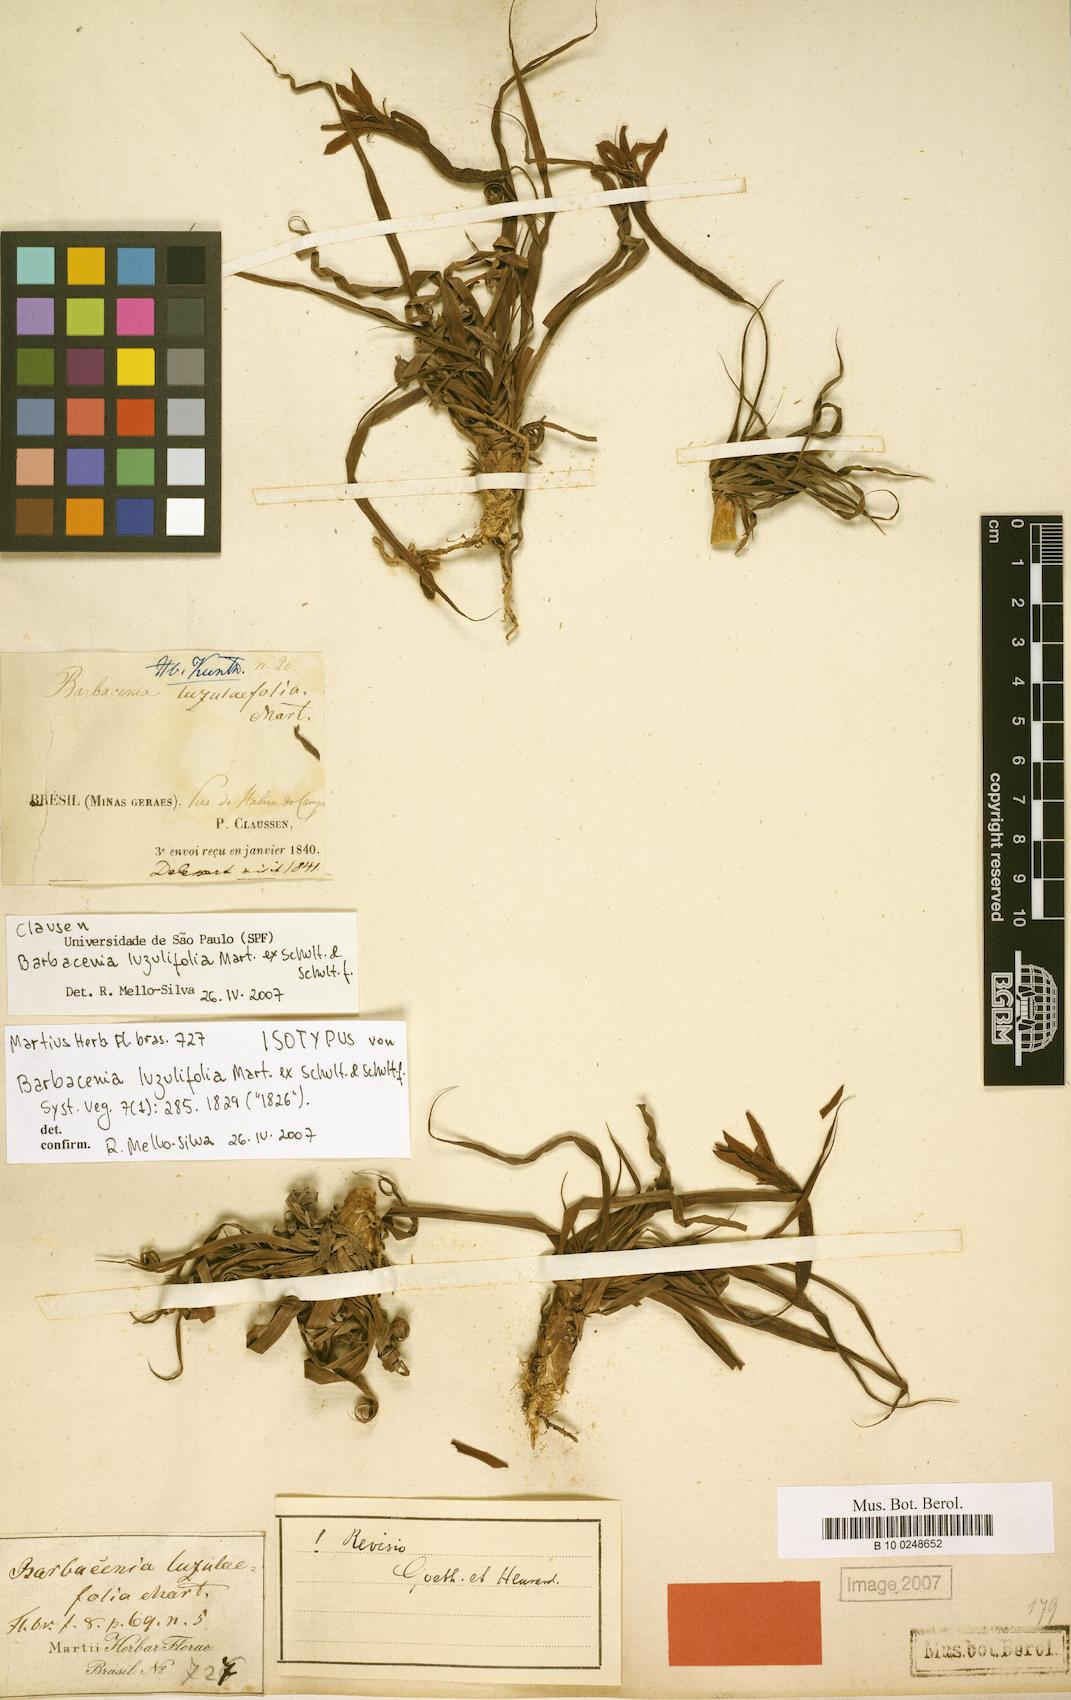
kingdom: Plantae
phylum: Tracheophyta
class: Liliopsida
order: Pandanales
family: Velloziaceae
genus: Barbacenia
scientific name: Barbacenia luzulifolia
